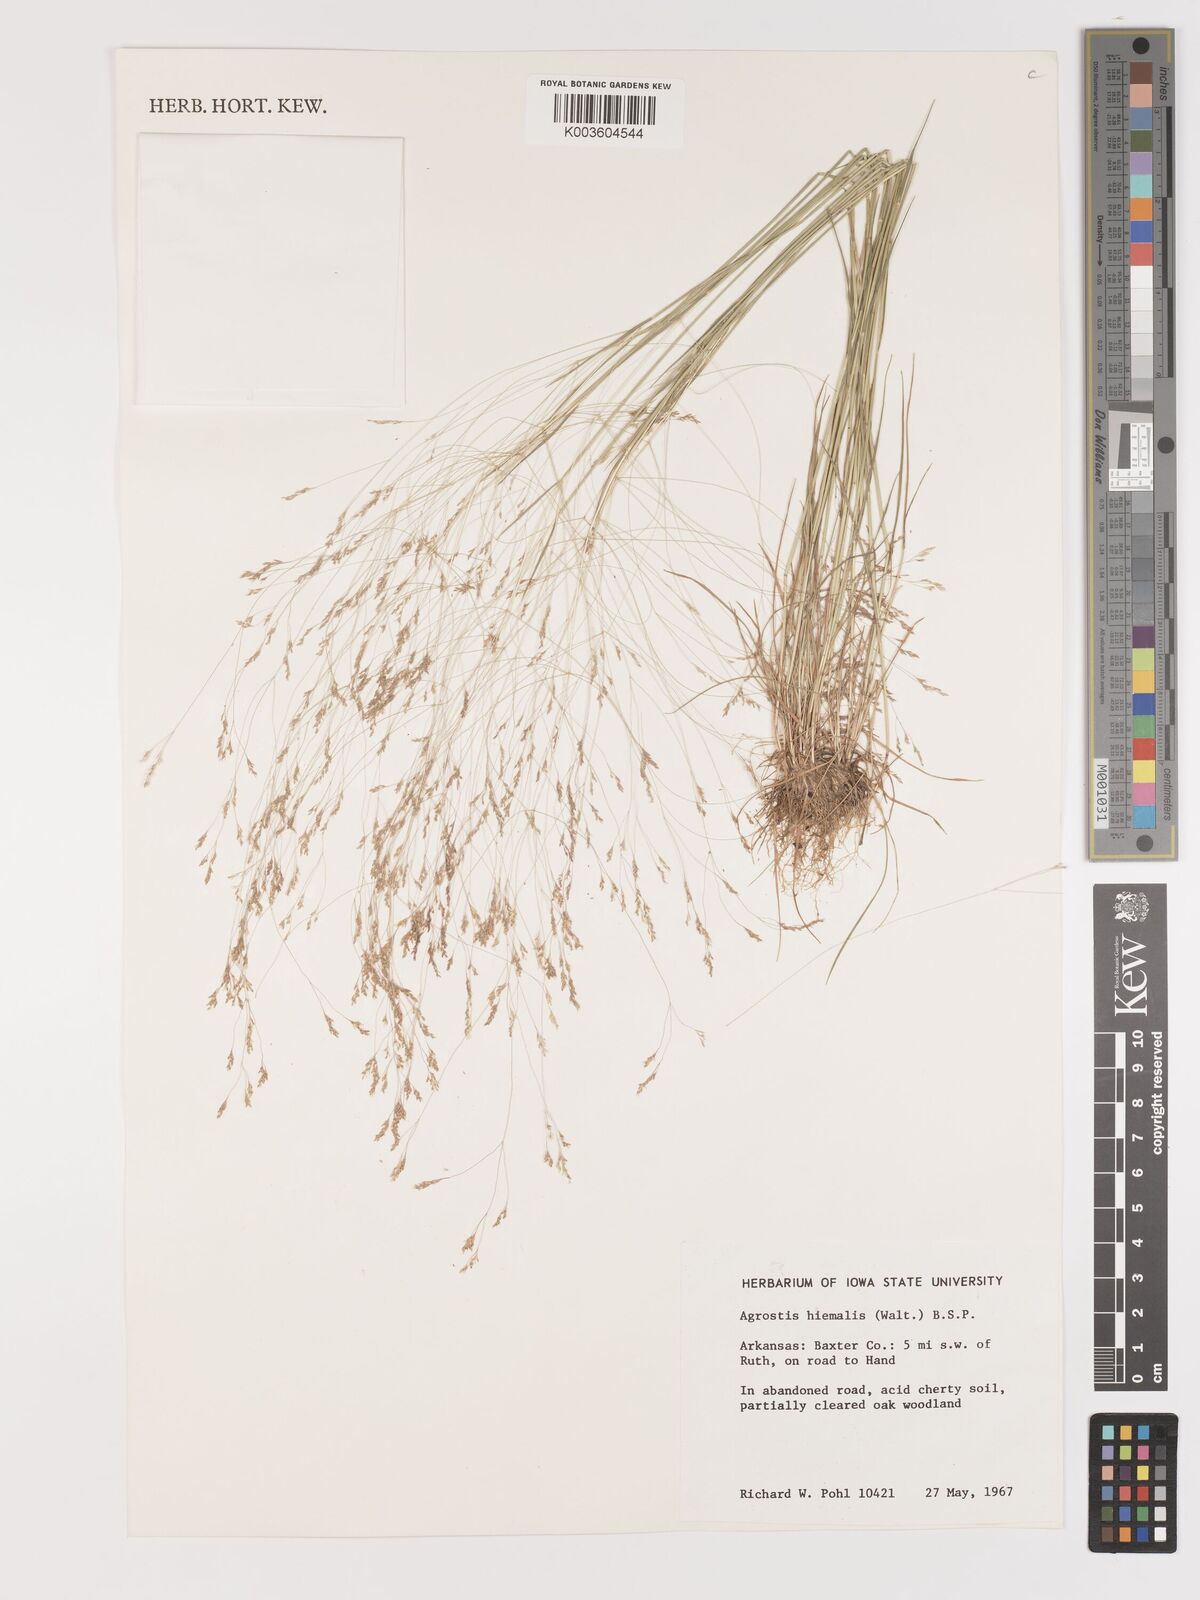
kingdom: Plantae
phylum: Tracheophyta
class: Liliopsida
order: Poales
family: Poaceae
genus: Agrostis
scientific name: Agrostis hyemalis
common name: Small bent
